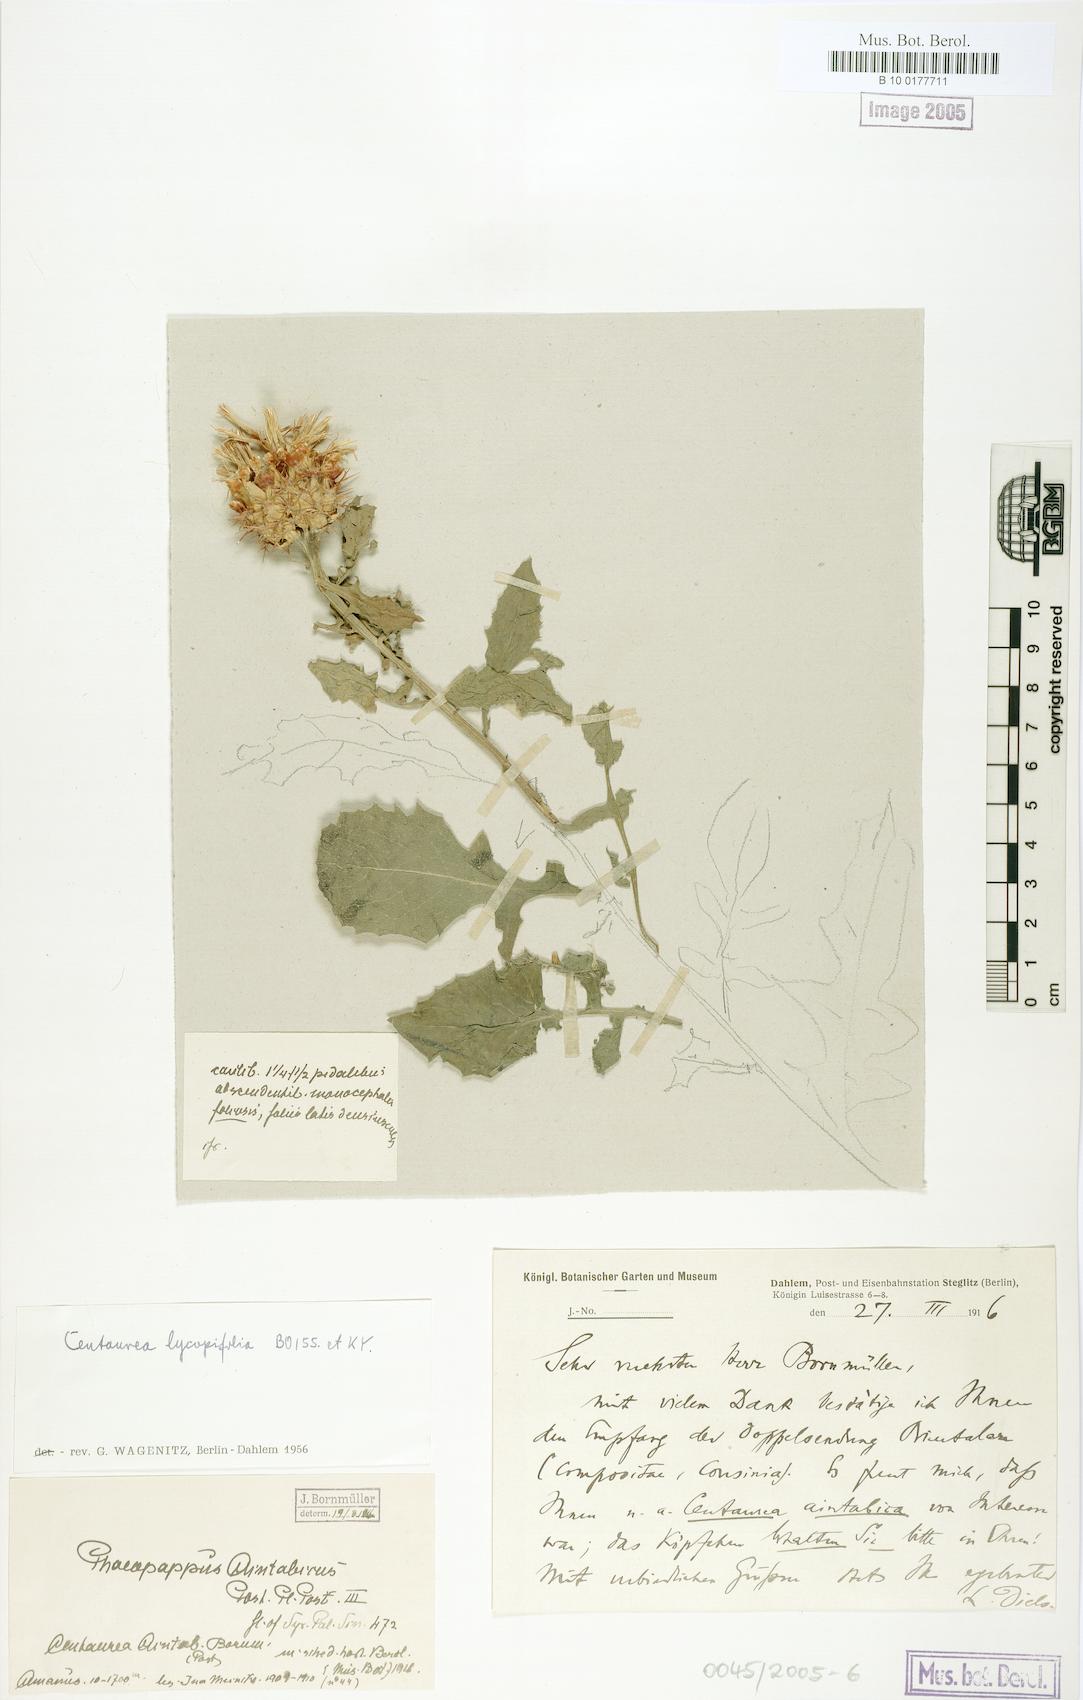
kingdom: Plantae
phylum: Tracheophyta
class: Magnoliopsida
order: Asterales
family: Asteraceae
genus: Centaurea
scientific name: Centaurea lycopifolia
